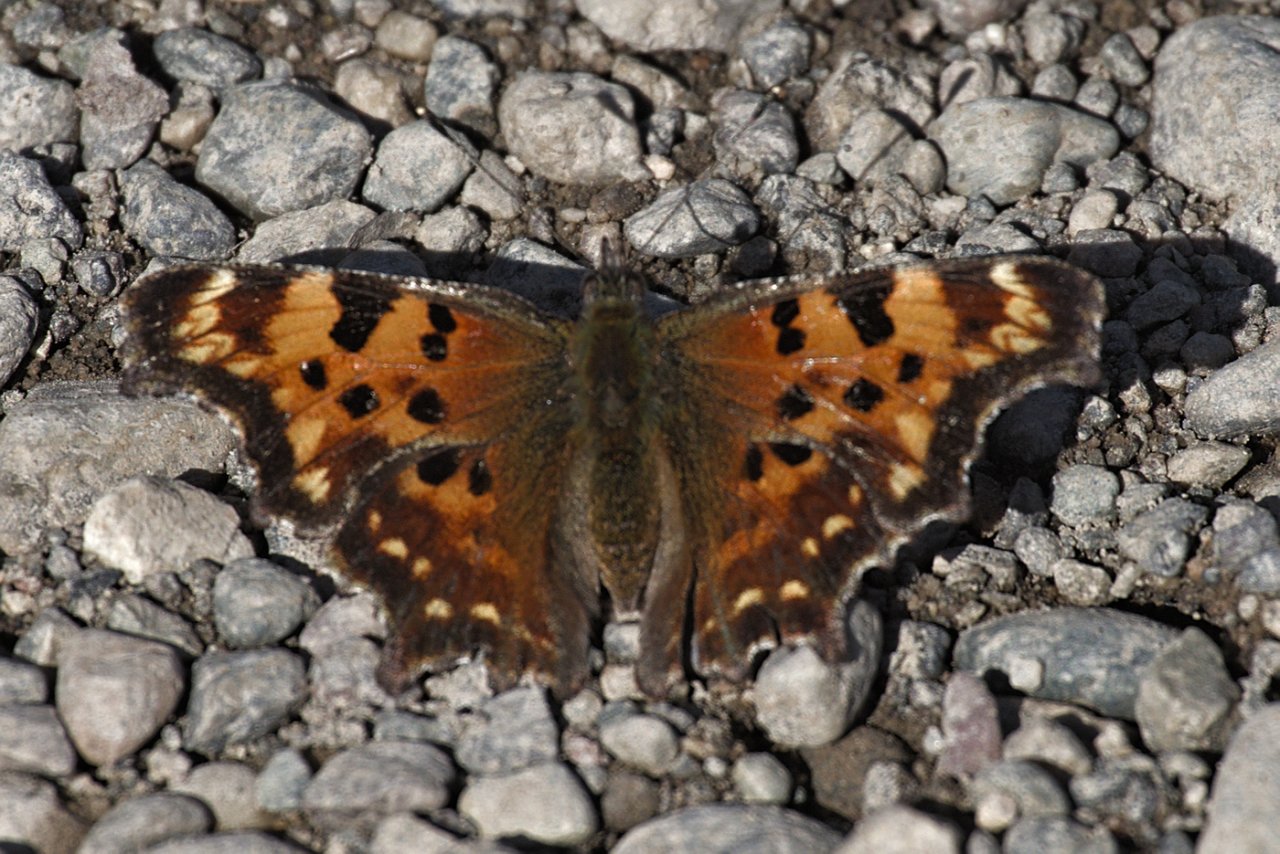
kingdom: Animalia
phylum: Arthropoda
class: Insecta
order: Lepidoptera
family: Nymphalidae
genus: Polygonia
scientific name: Polygonia faunus
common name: Green Comma
